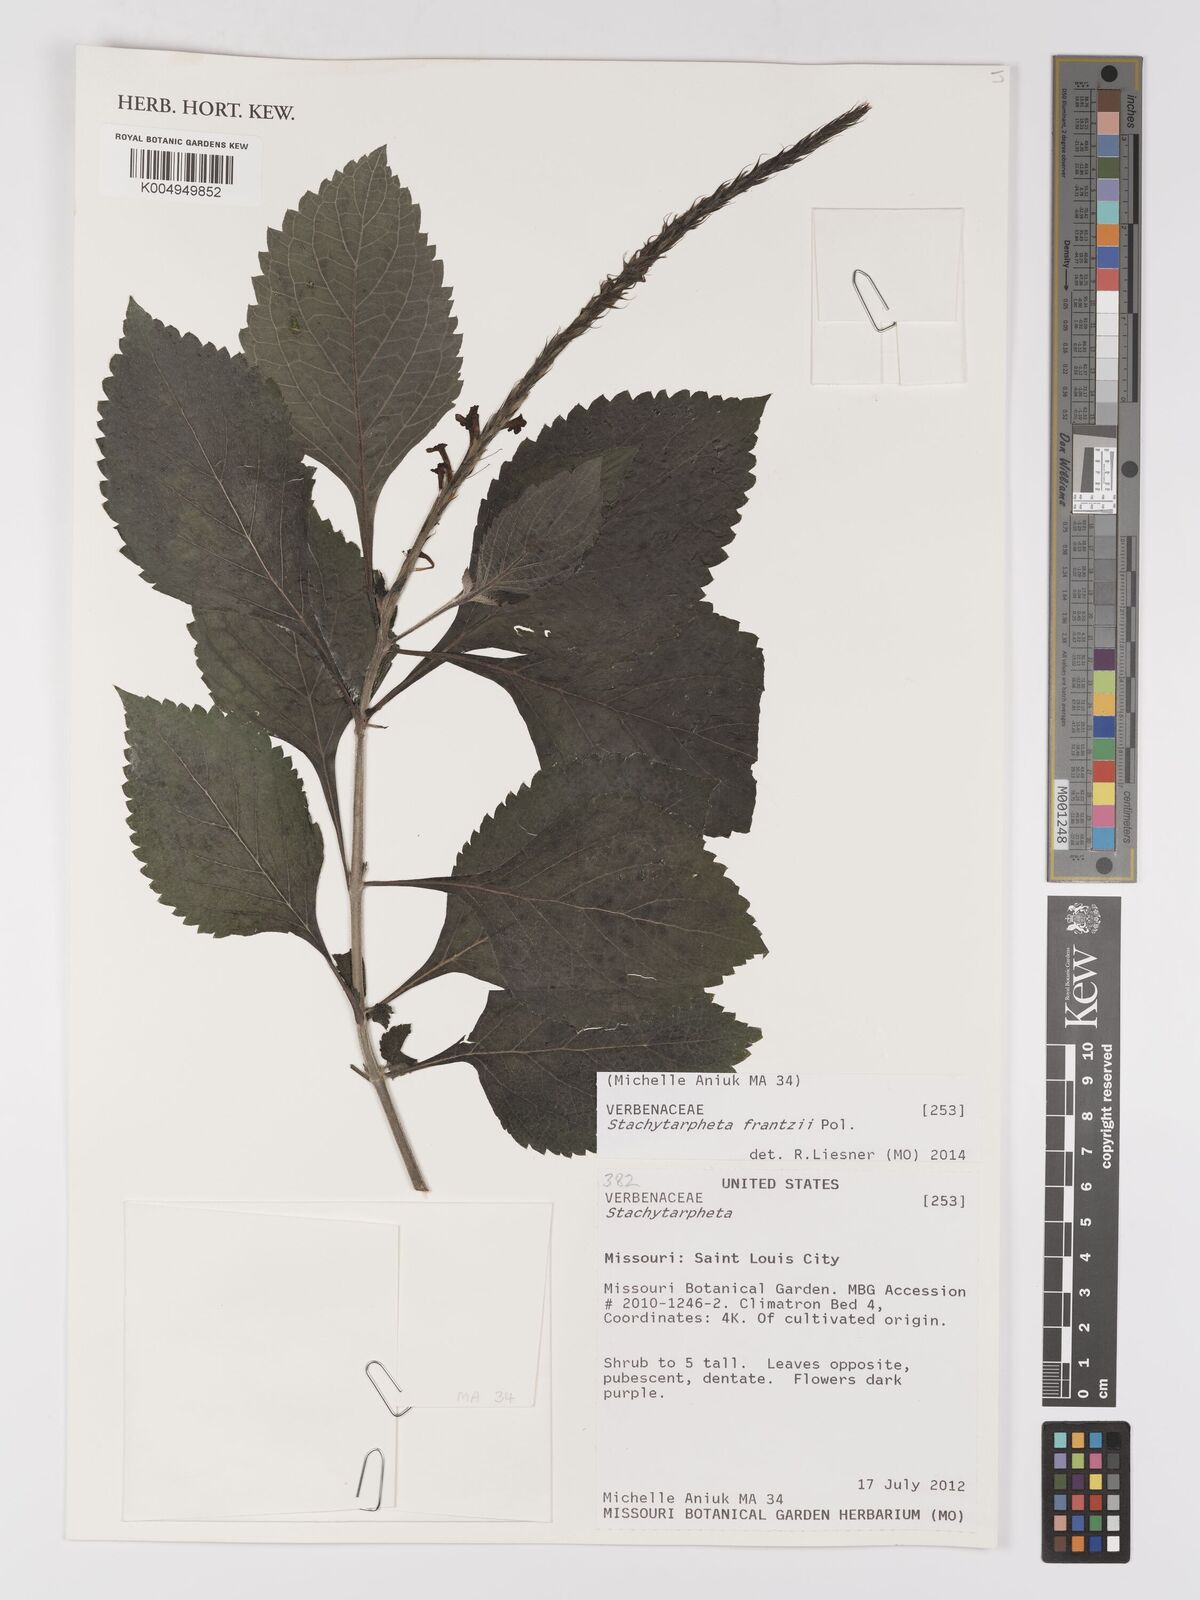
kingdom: Plantae
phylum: Tracheophyta
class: Magnoliopsida
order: Lamiales
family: Verbenaceae
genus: Stachytarpheta
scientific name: Stachytarpheta frantzii
